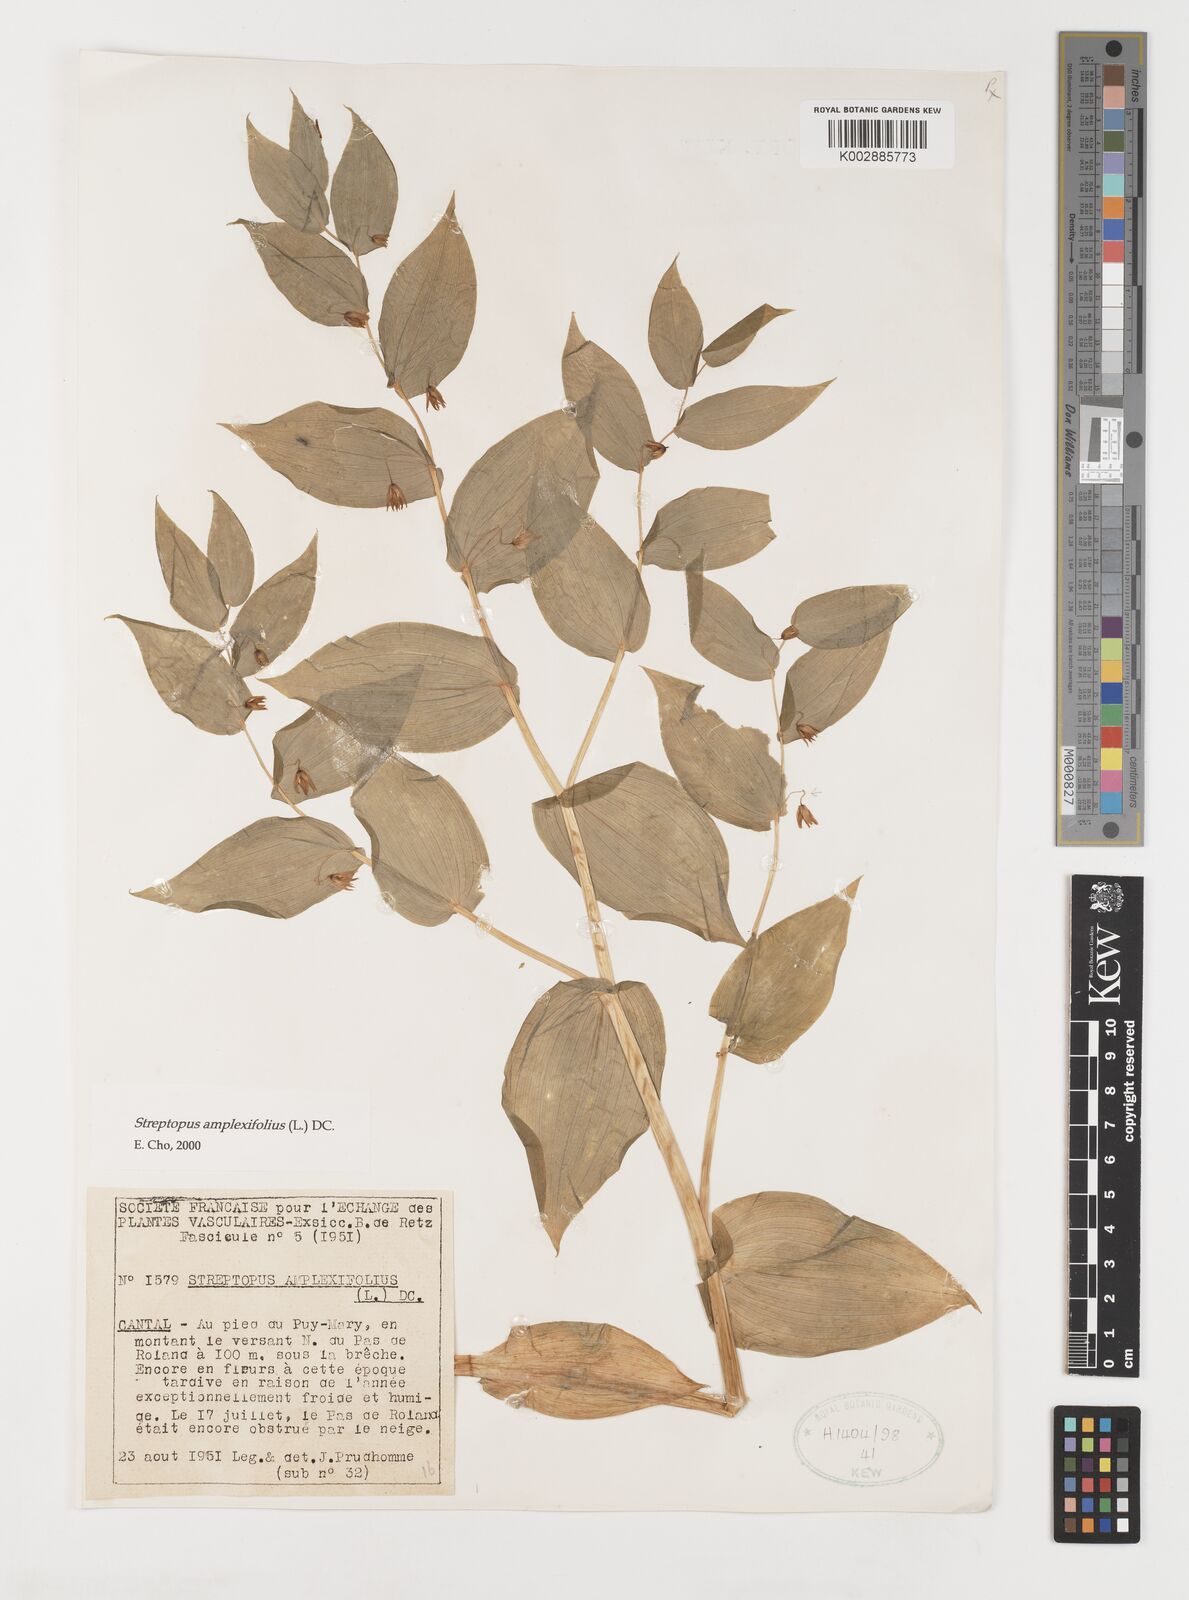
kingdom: Plantae
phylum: Tracheophyta
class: Liliopsida
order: Liliales
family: Liliaceae
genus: Streptopus
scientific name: Streptopus amplexifolius
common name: Clasp twisted stalk
